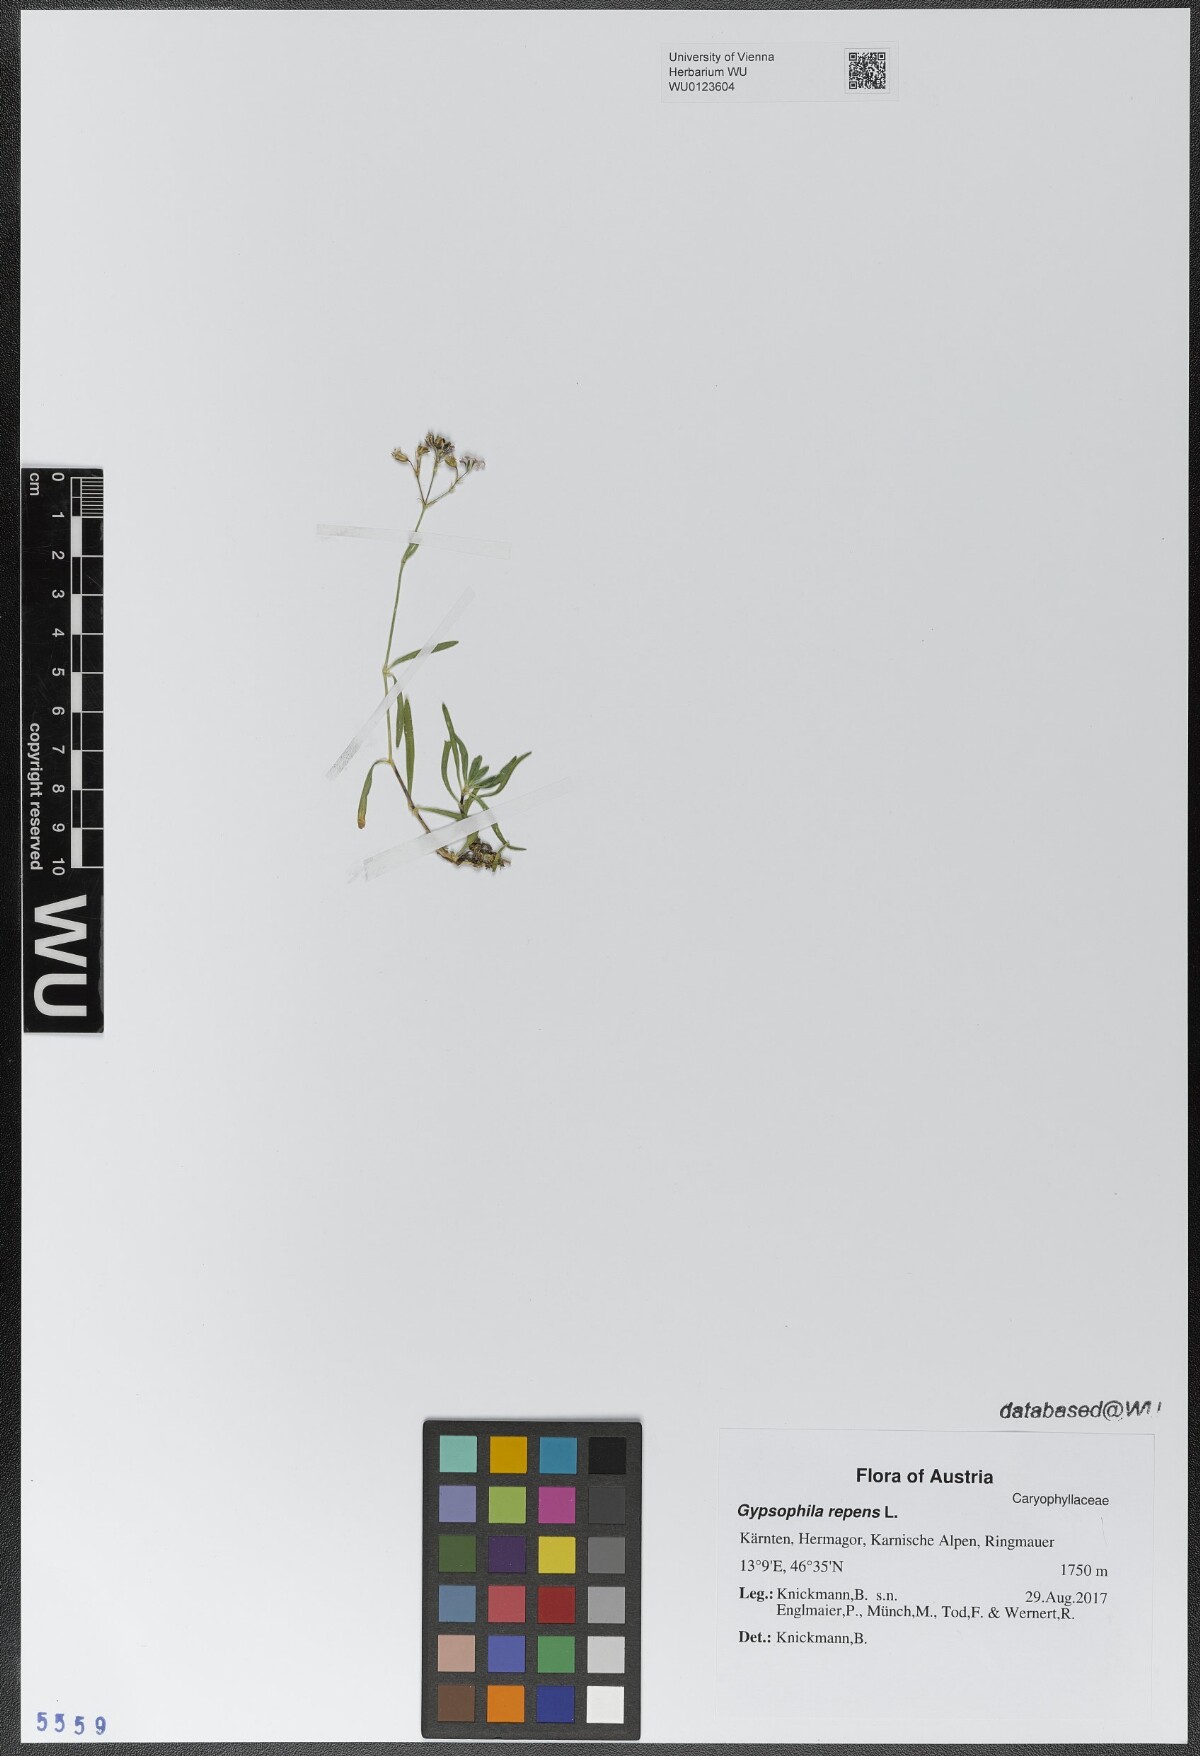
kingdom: Plantae
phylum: Tracheophyta
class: Magnoliopsida
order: Caryophyllales
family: Caryophyllaceae
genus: Gypsophila
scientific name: Gypsophila repens
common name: Creeping baby's-breath
